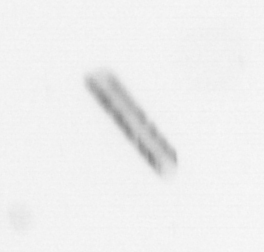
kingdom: Chromista
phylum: Ochrophyta
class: Bacillariophyceae
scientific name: Bacillariophyceae
